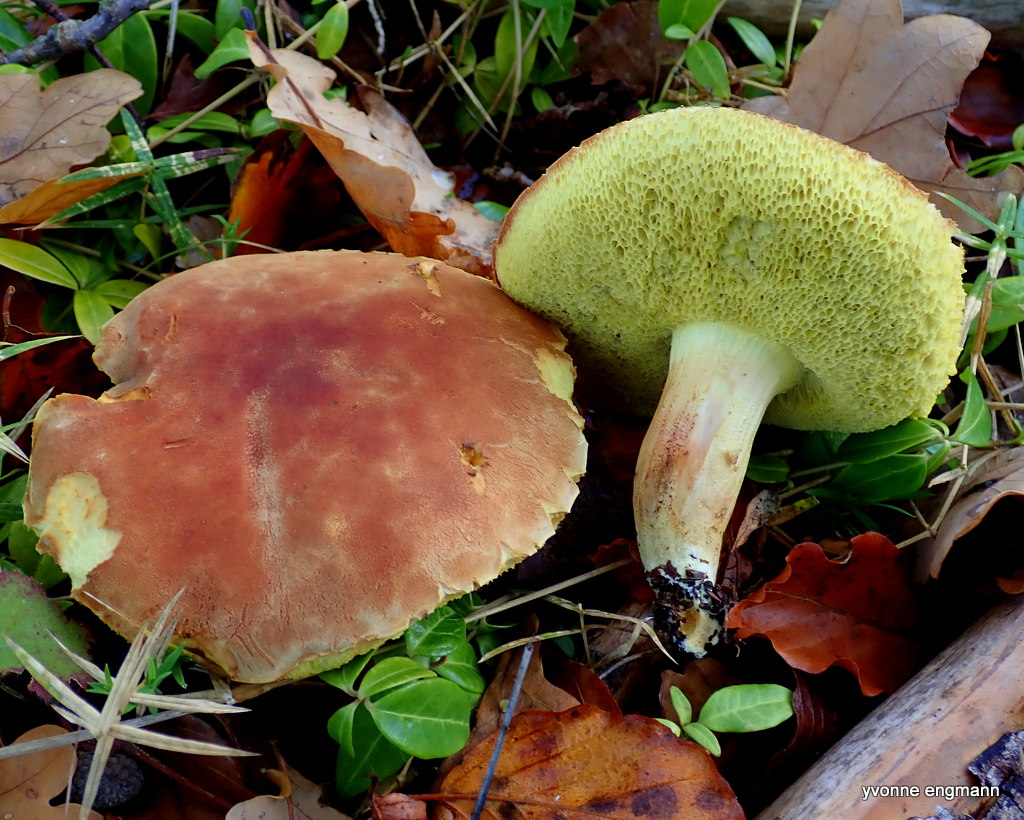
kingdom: Fungi
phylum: Basidiomycota
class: Agaricomycetes
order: Boletales
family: Boletaceae
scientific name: Boletaceae
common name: rørhatfamilien
